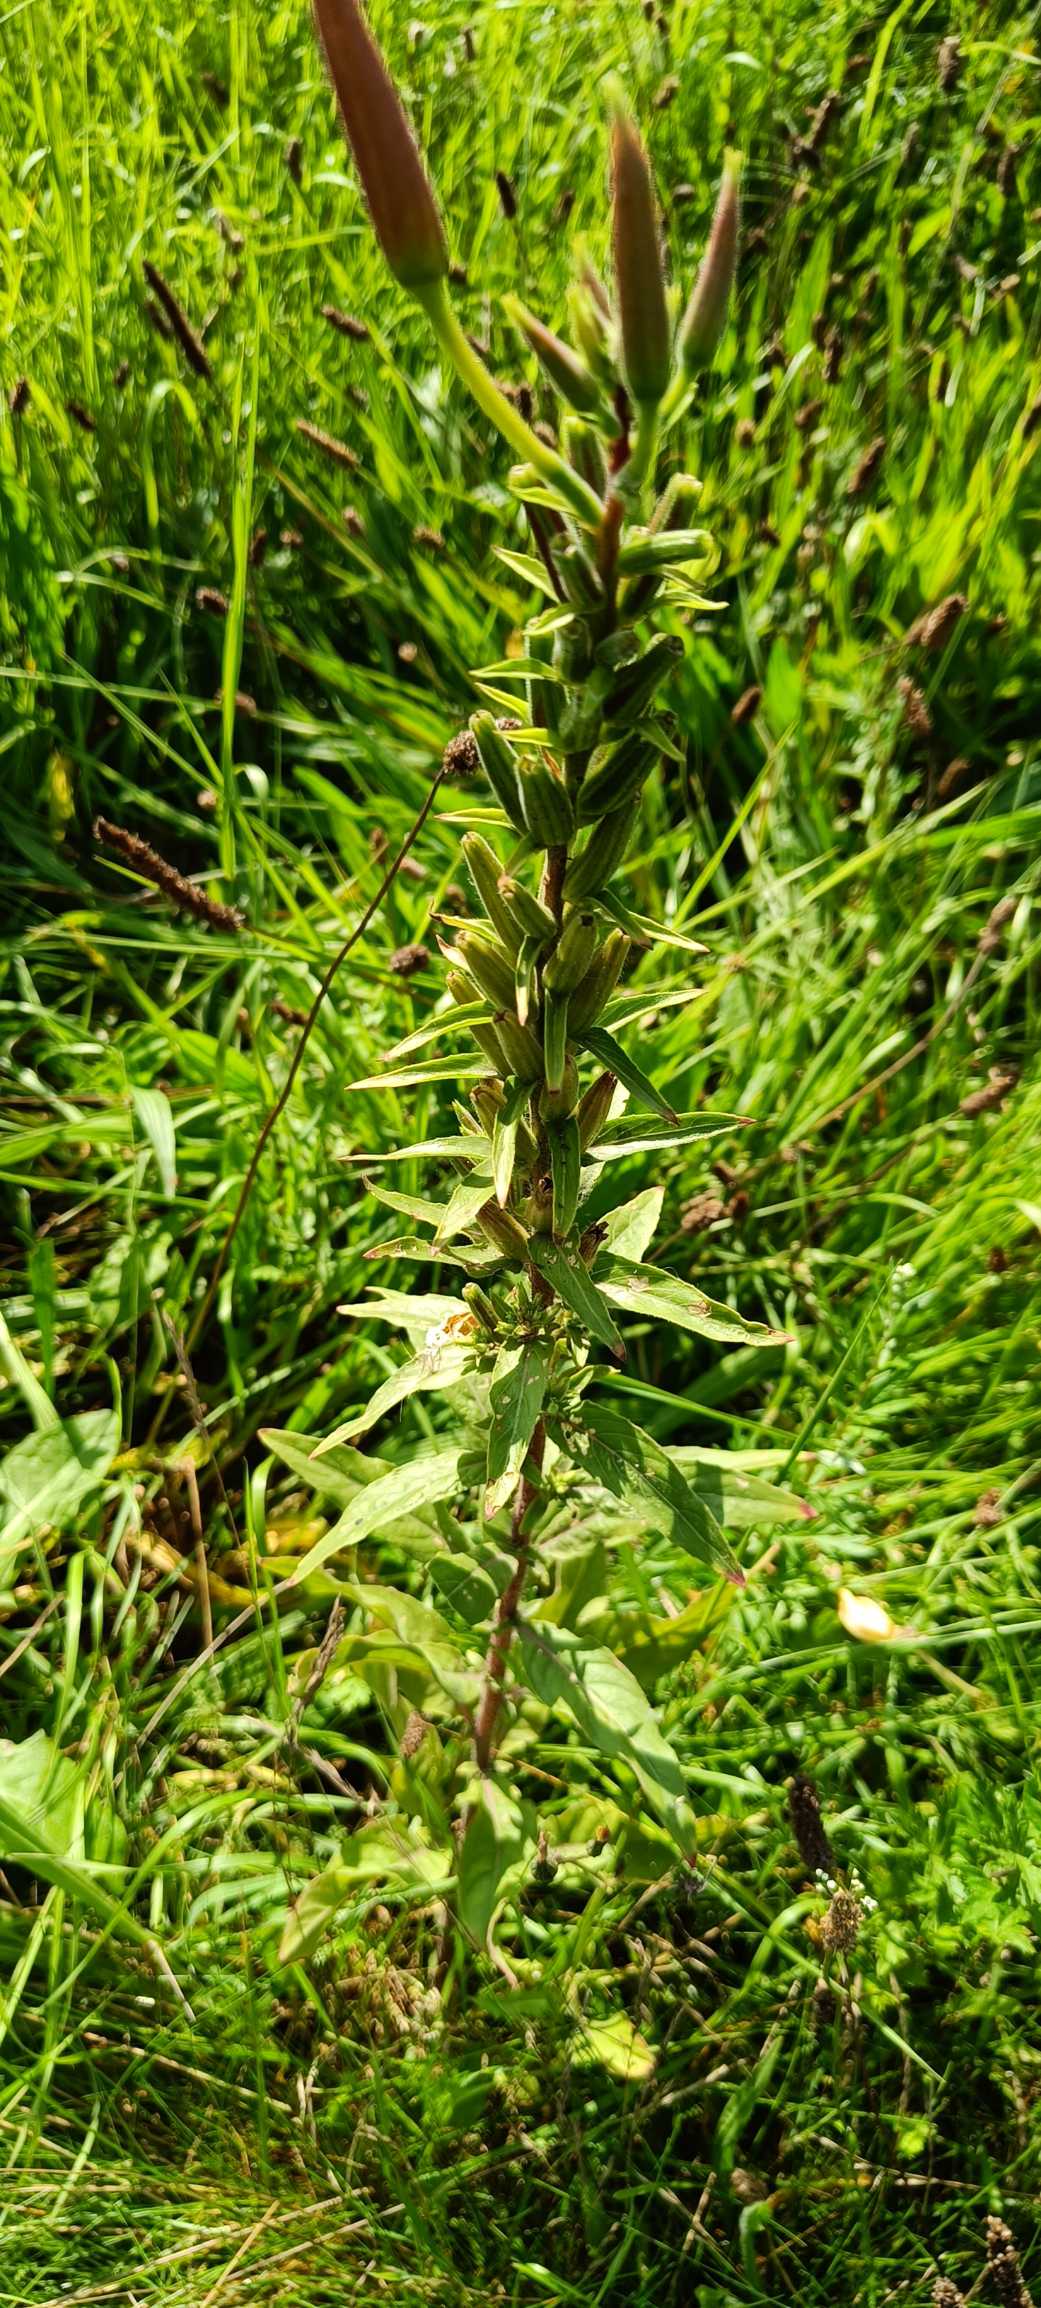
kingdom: Plantae
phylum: Tracheophyta
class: Magnoliopsida
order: Myrtales
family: Onagraceae
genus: Oenothera
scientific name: Oenothera glazioviana
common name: Kæmpe-natlys
